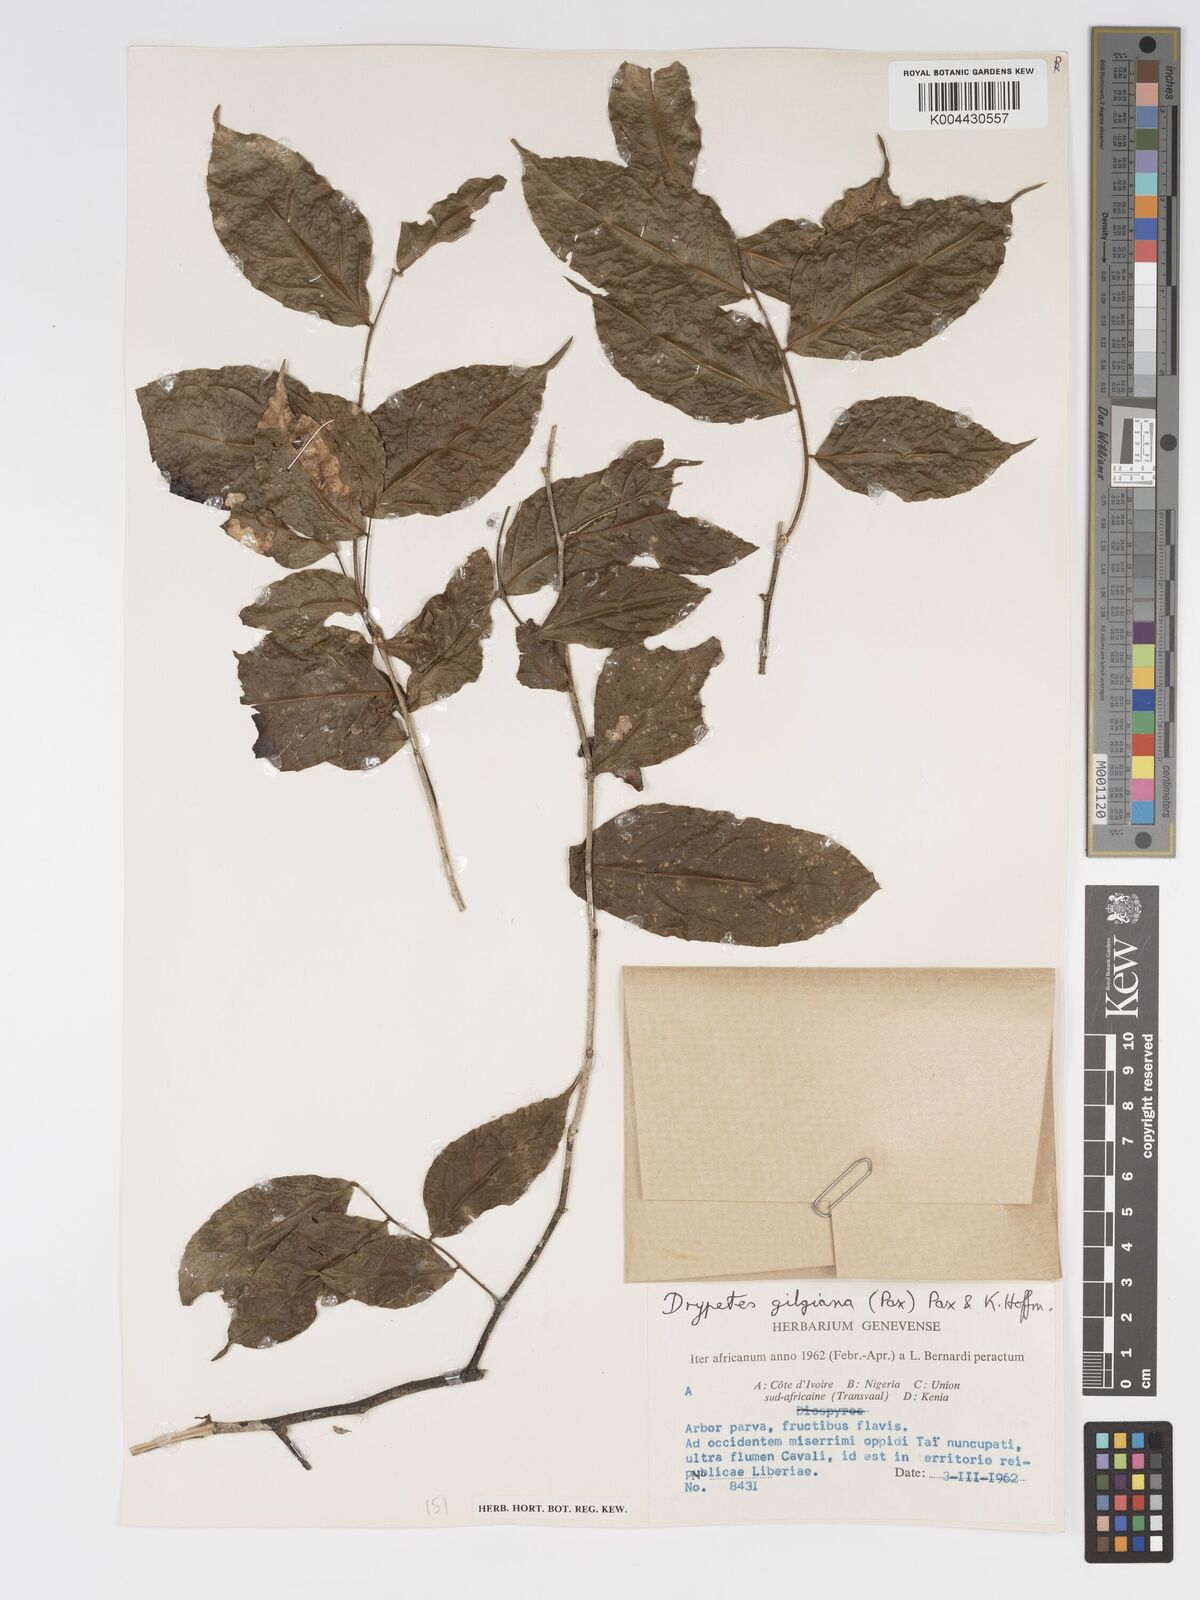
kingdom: Plantae
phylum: Tracheophyta
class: Magnoliopsida
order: Malpighiales
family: Putranjivaceae
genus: Drypetes
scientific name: Drypetes gilgiana
